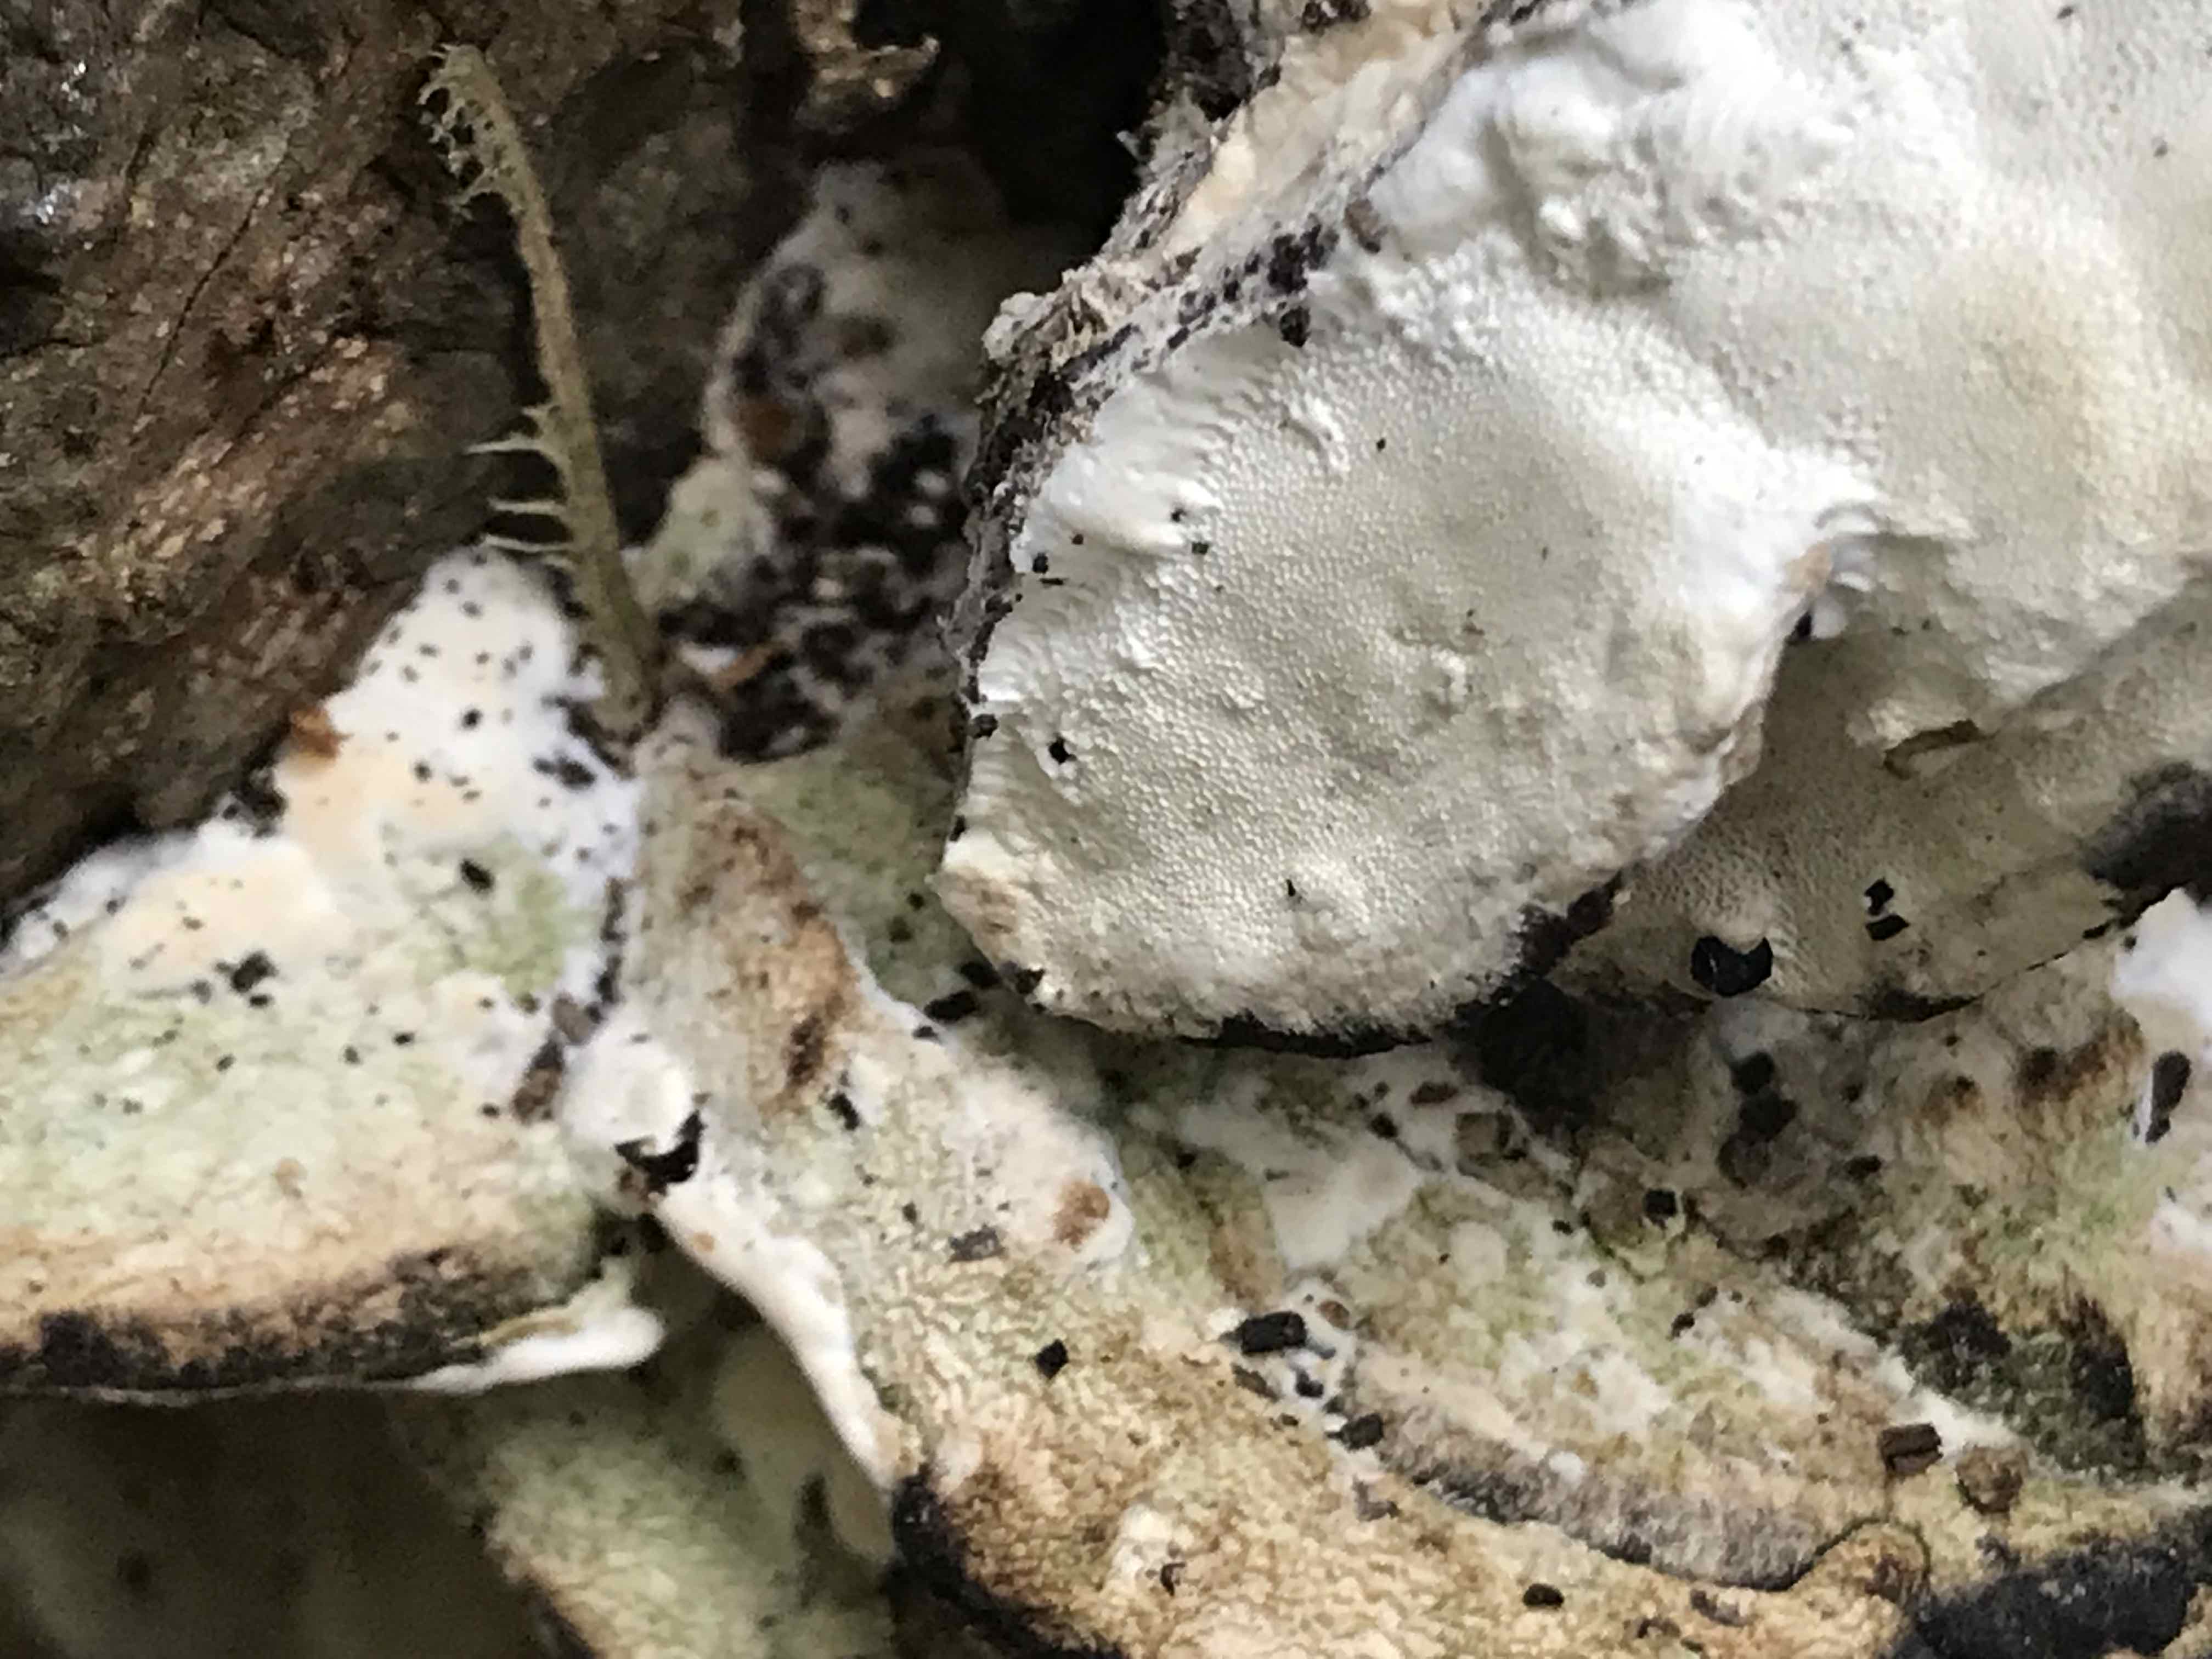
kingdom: Fungi
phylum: Basidiomycota
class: Agaricomycetes
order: Hymenochaetales
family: Oxyporaceae
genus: Oxyporus
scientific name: Oxyporus populinus
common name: sammenvokset trylleporesvamp
